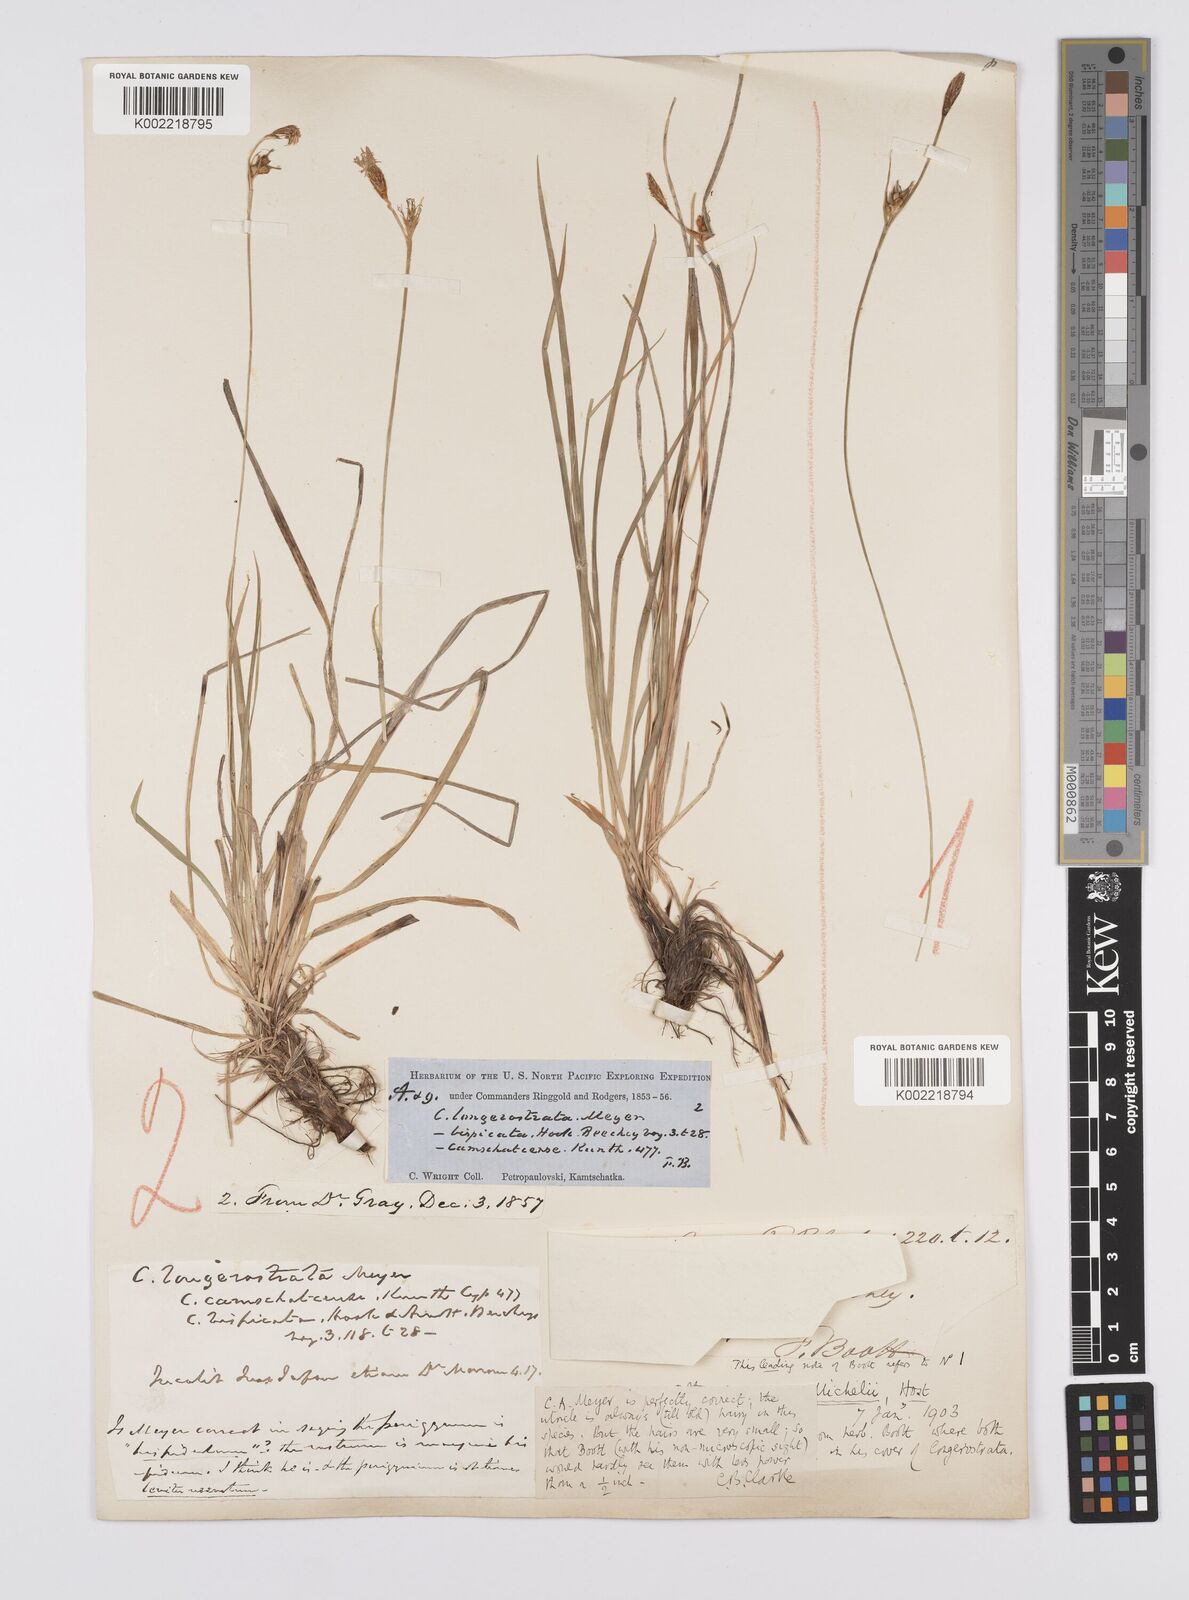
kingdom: Plantae
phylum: Tracheophyta
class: Liliopsida
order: Poales
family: Cyperaceae
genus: Carex
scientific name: Carex longerostrata
